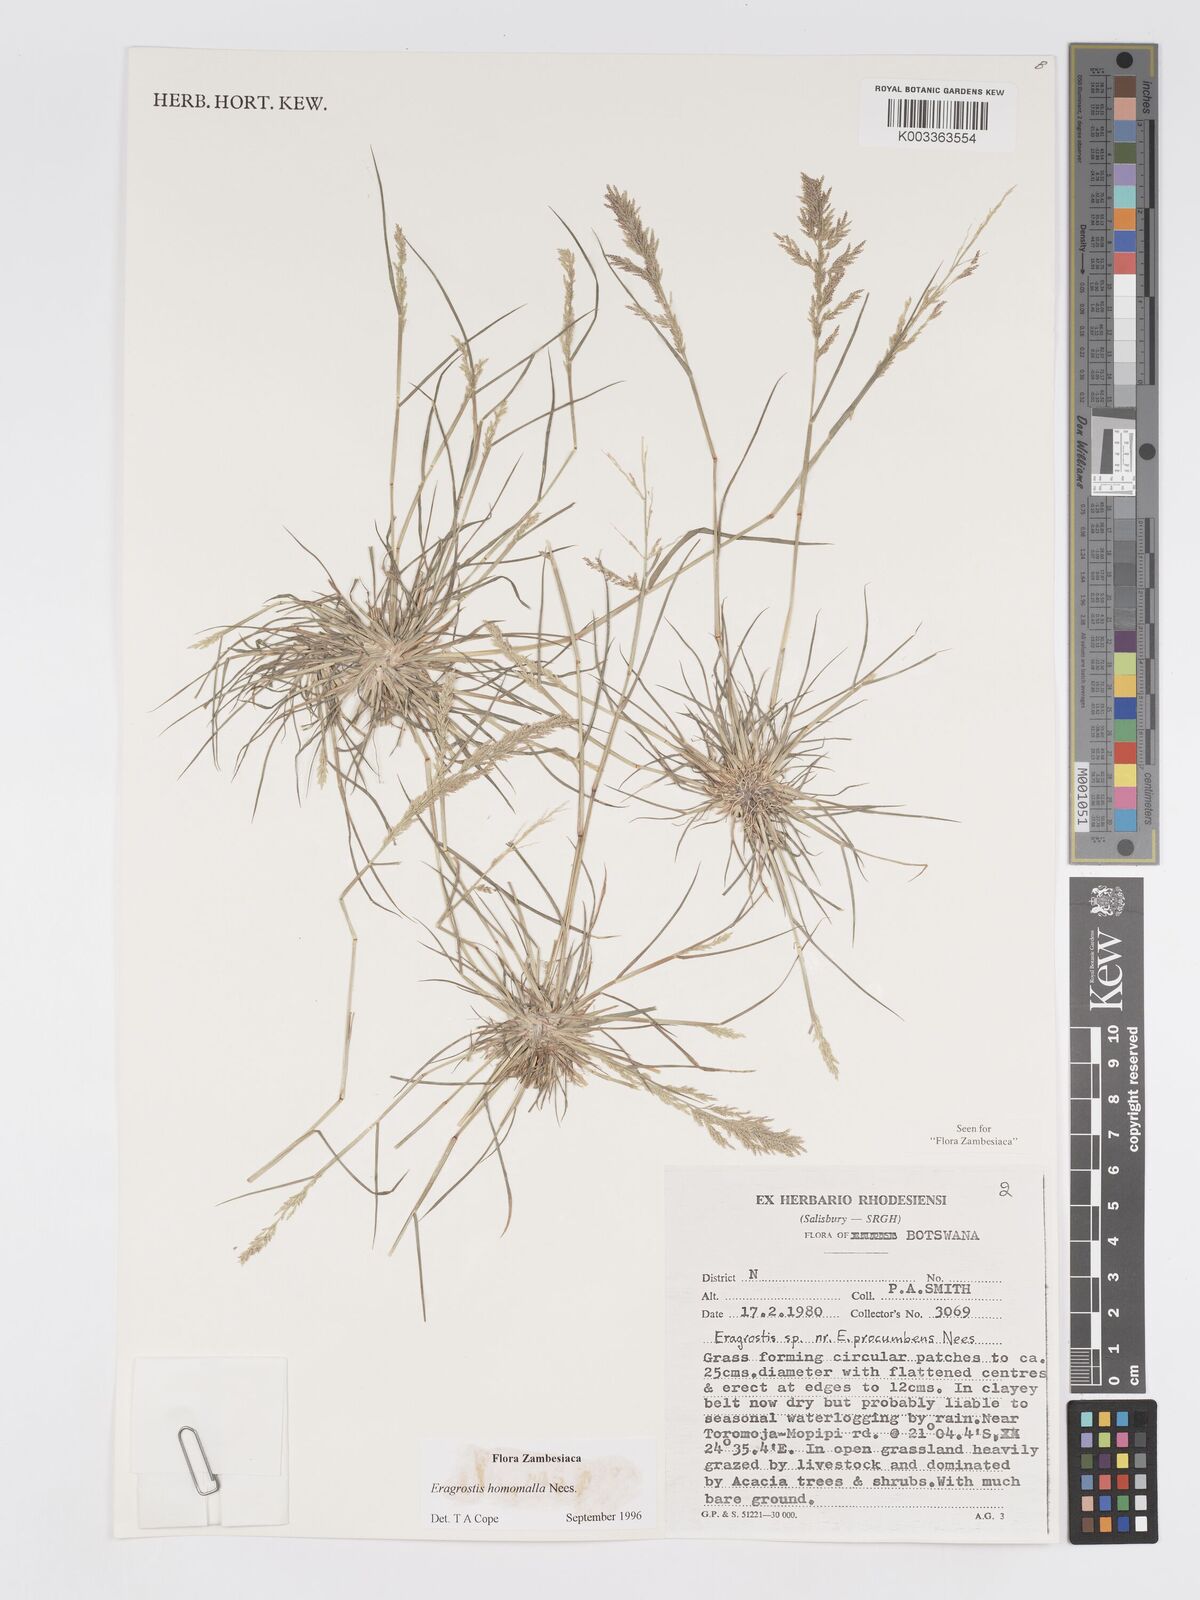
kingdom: Plantae
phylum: Tracheophyta
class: Liliopsida
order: Poales
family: Poaceae
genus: Eragrostis
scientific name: Eragrostis homomalla
